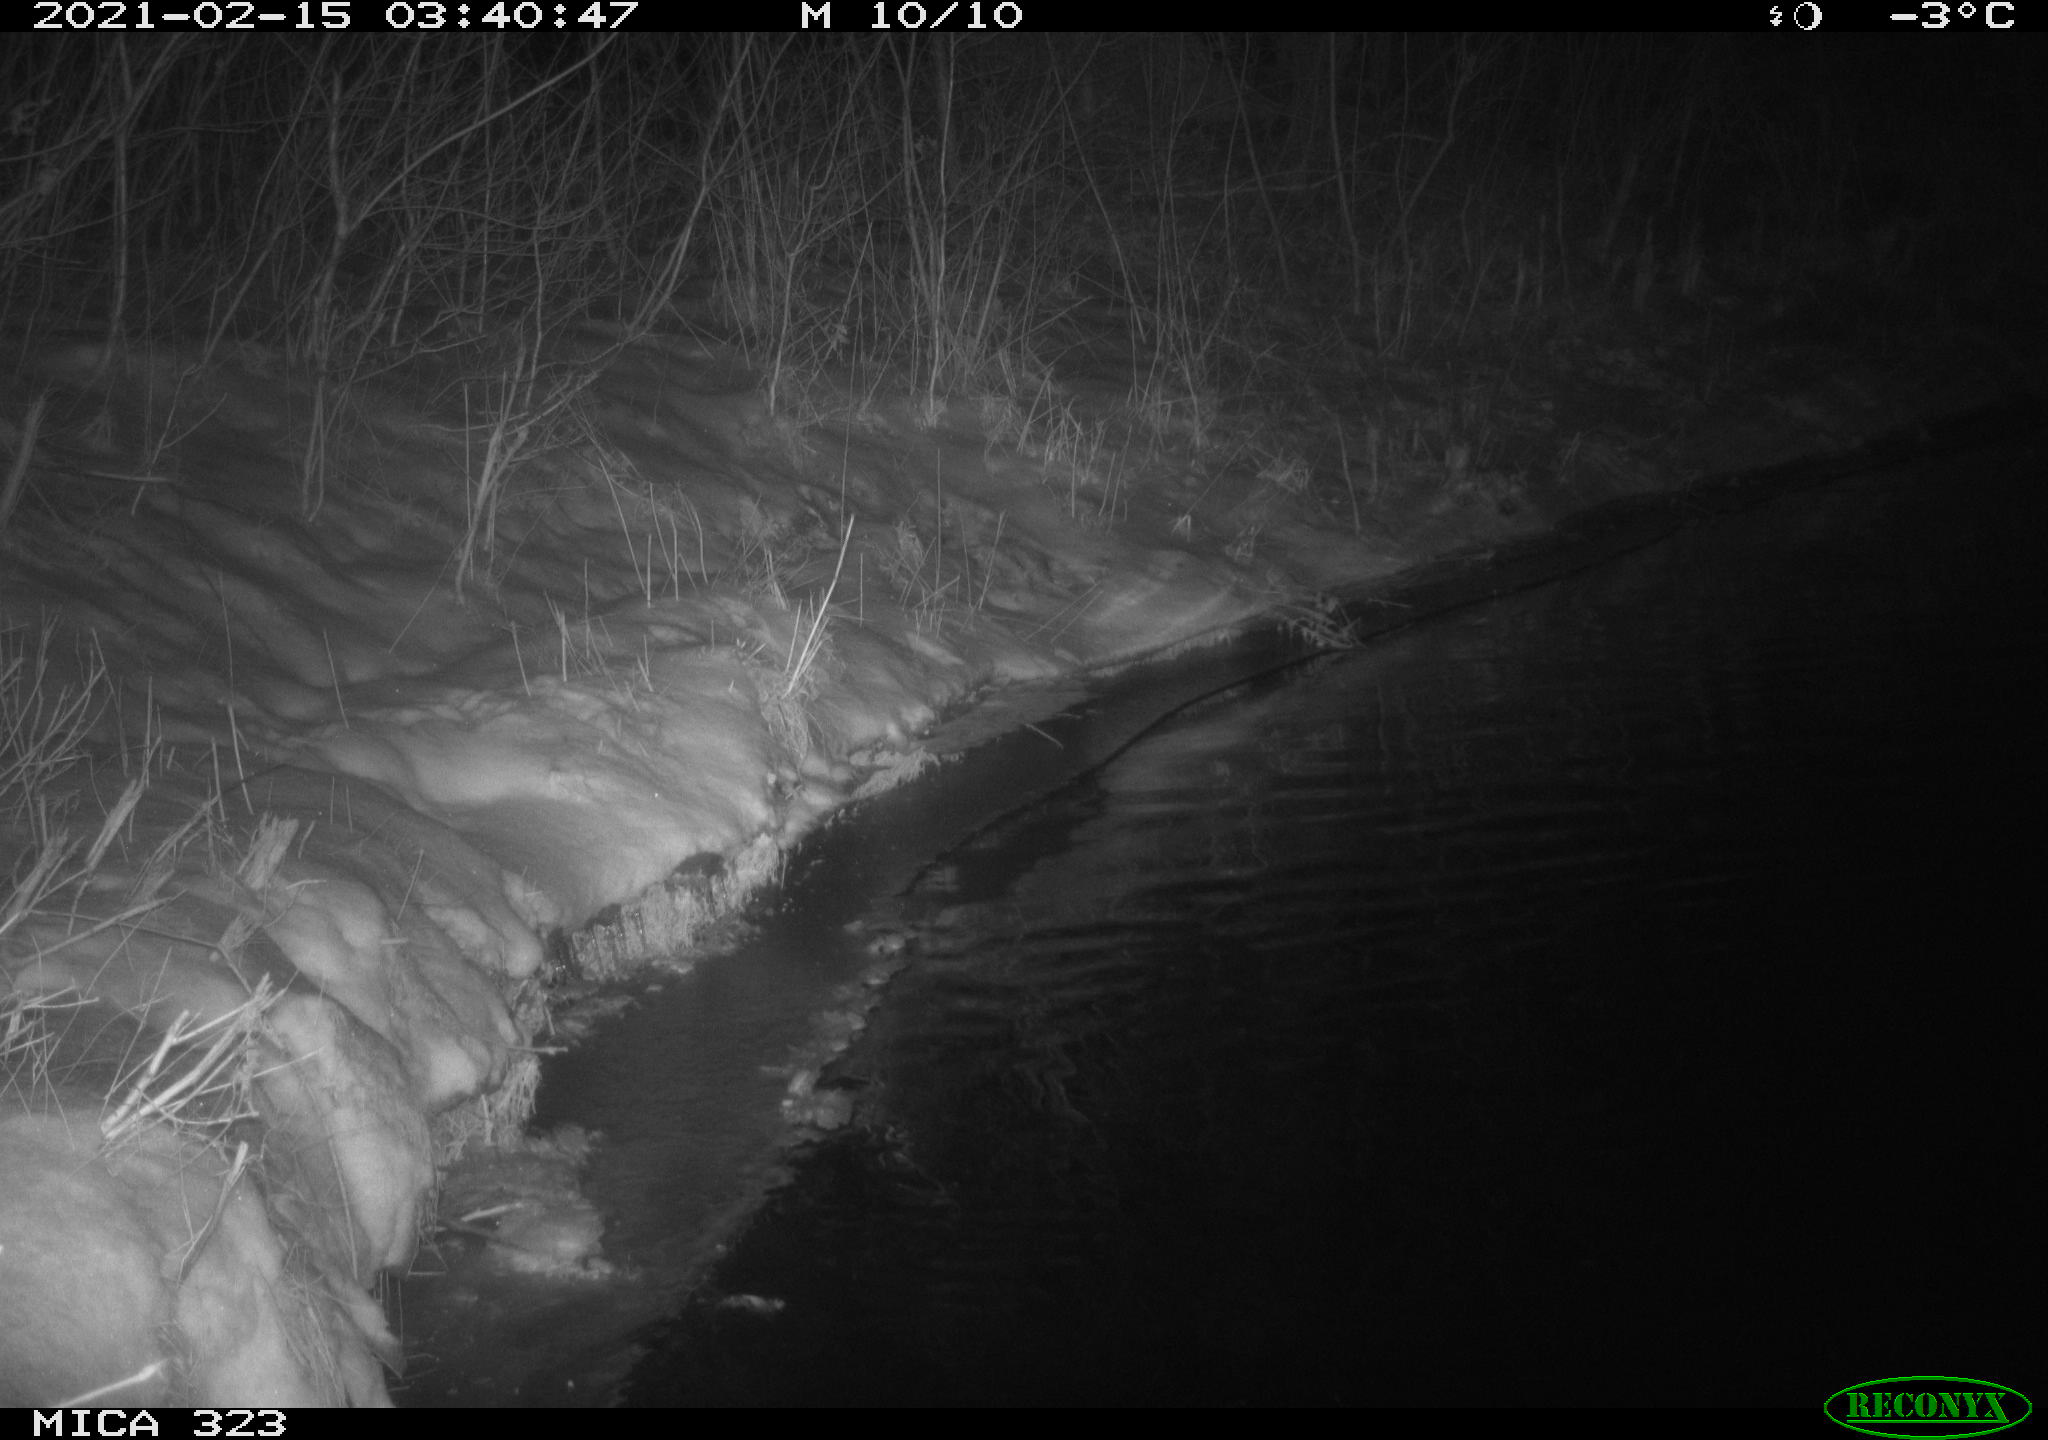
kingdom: Animalia
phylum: Chordata
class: Aves
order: Anseriformes
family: Anatidae
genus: Anas
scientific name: Anas
